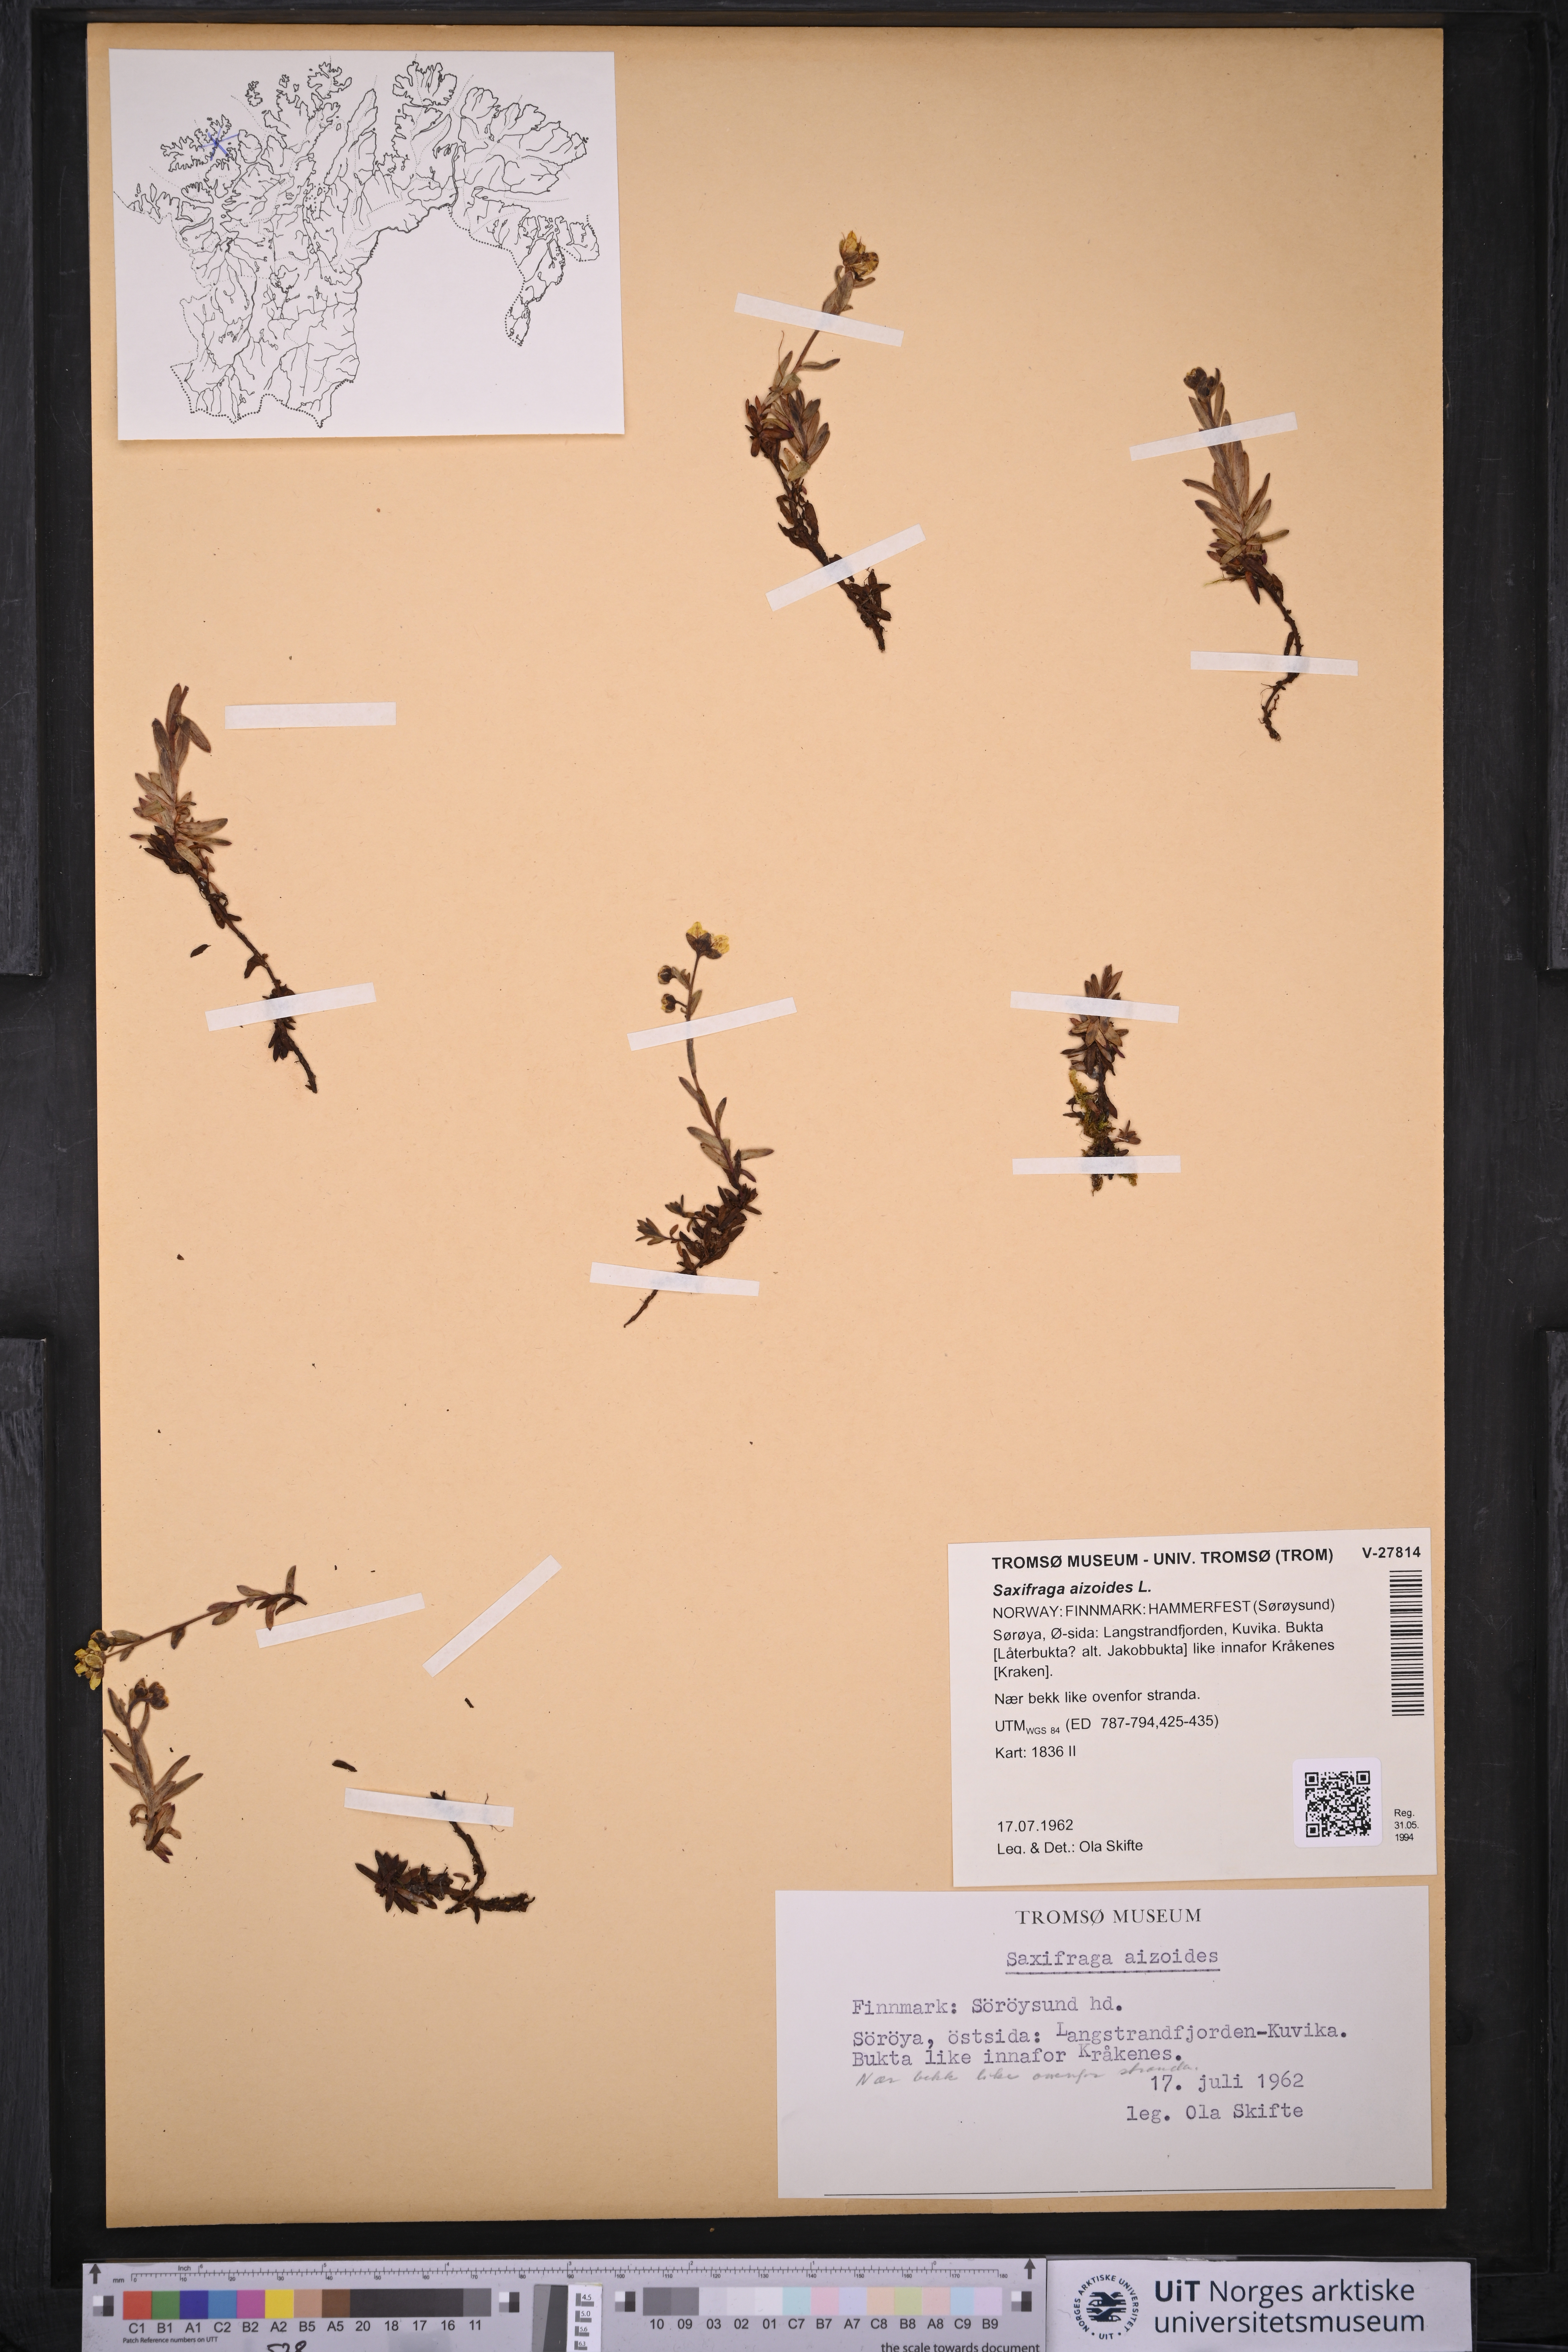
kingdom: Plantae
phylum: Tracheophyta
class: Magnoliopsida
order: Saxifragales
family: Saxifragaceae
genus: Saxifraga
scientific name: Saxifraga aizoides
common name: Yellow mountain saxifrage
